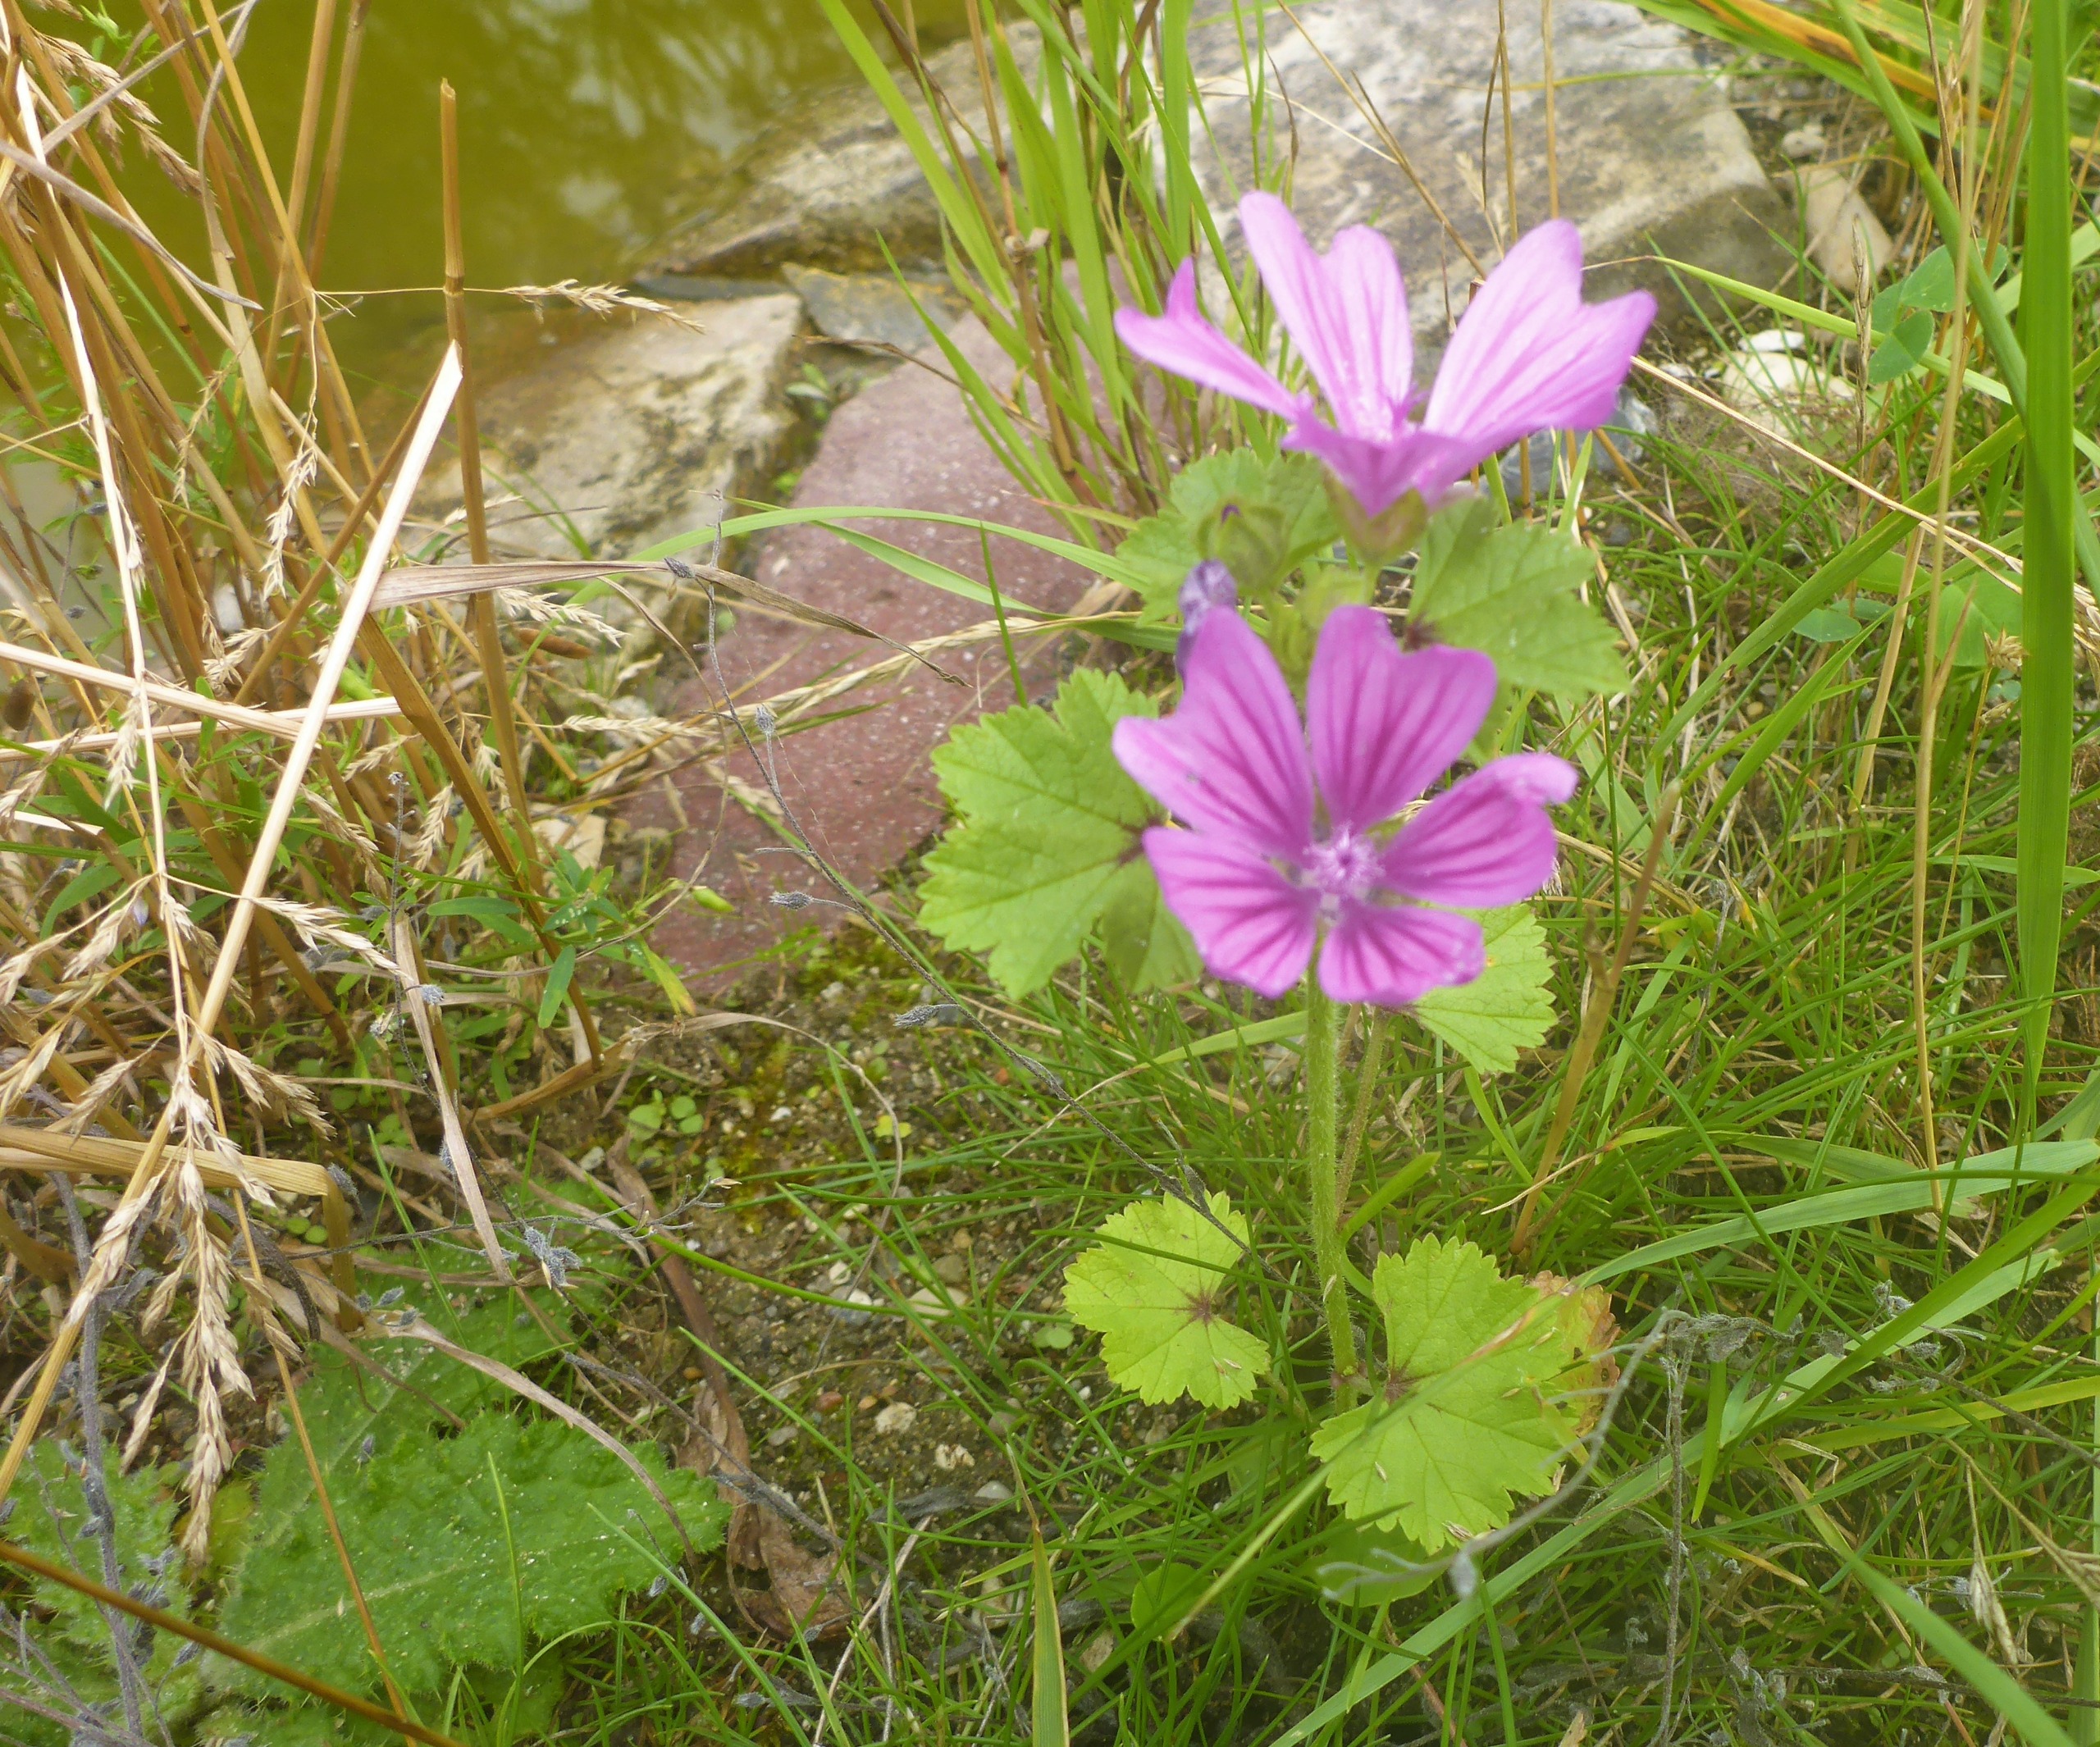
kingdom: Plantae
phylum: Tracheophyta
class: Magnoliopsida
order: Malvales
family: Malvaceae
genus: Malva
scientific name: Malva sylvestris
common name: Almindelig katost
